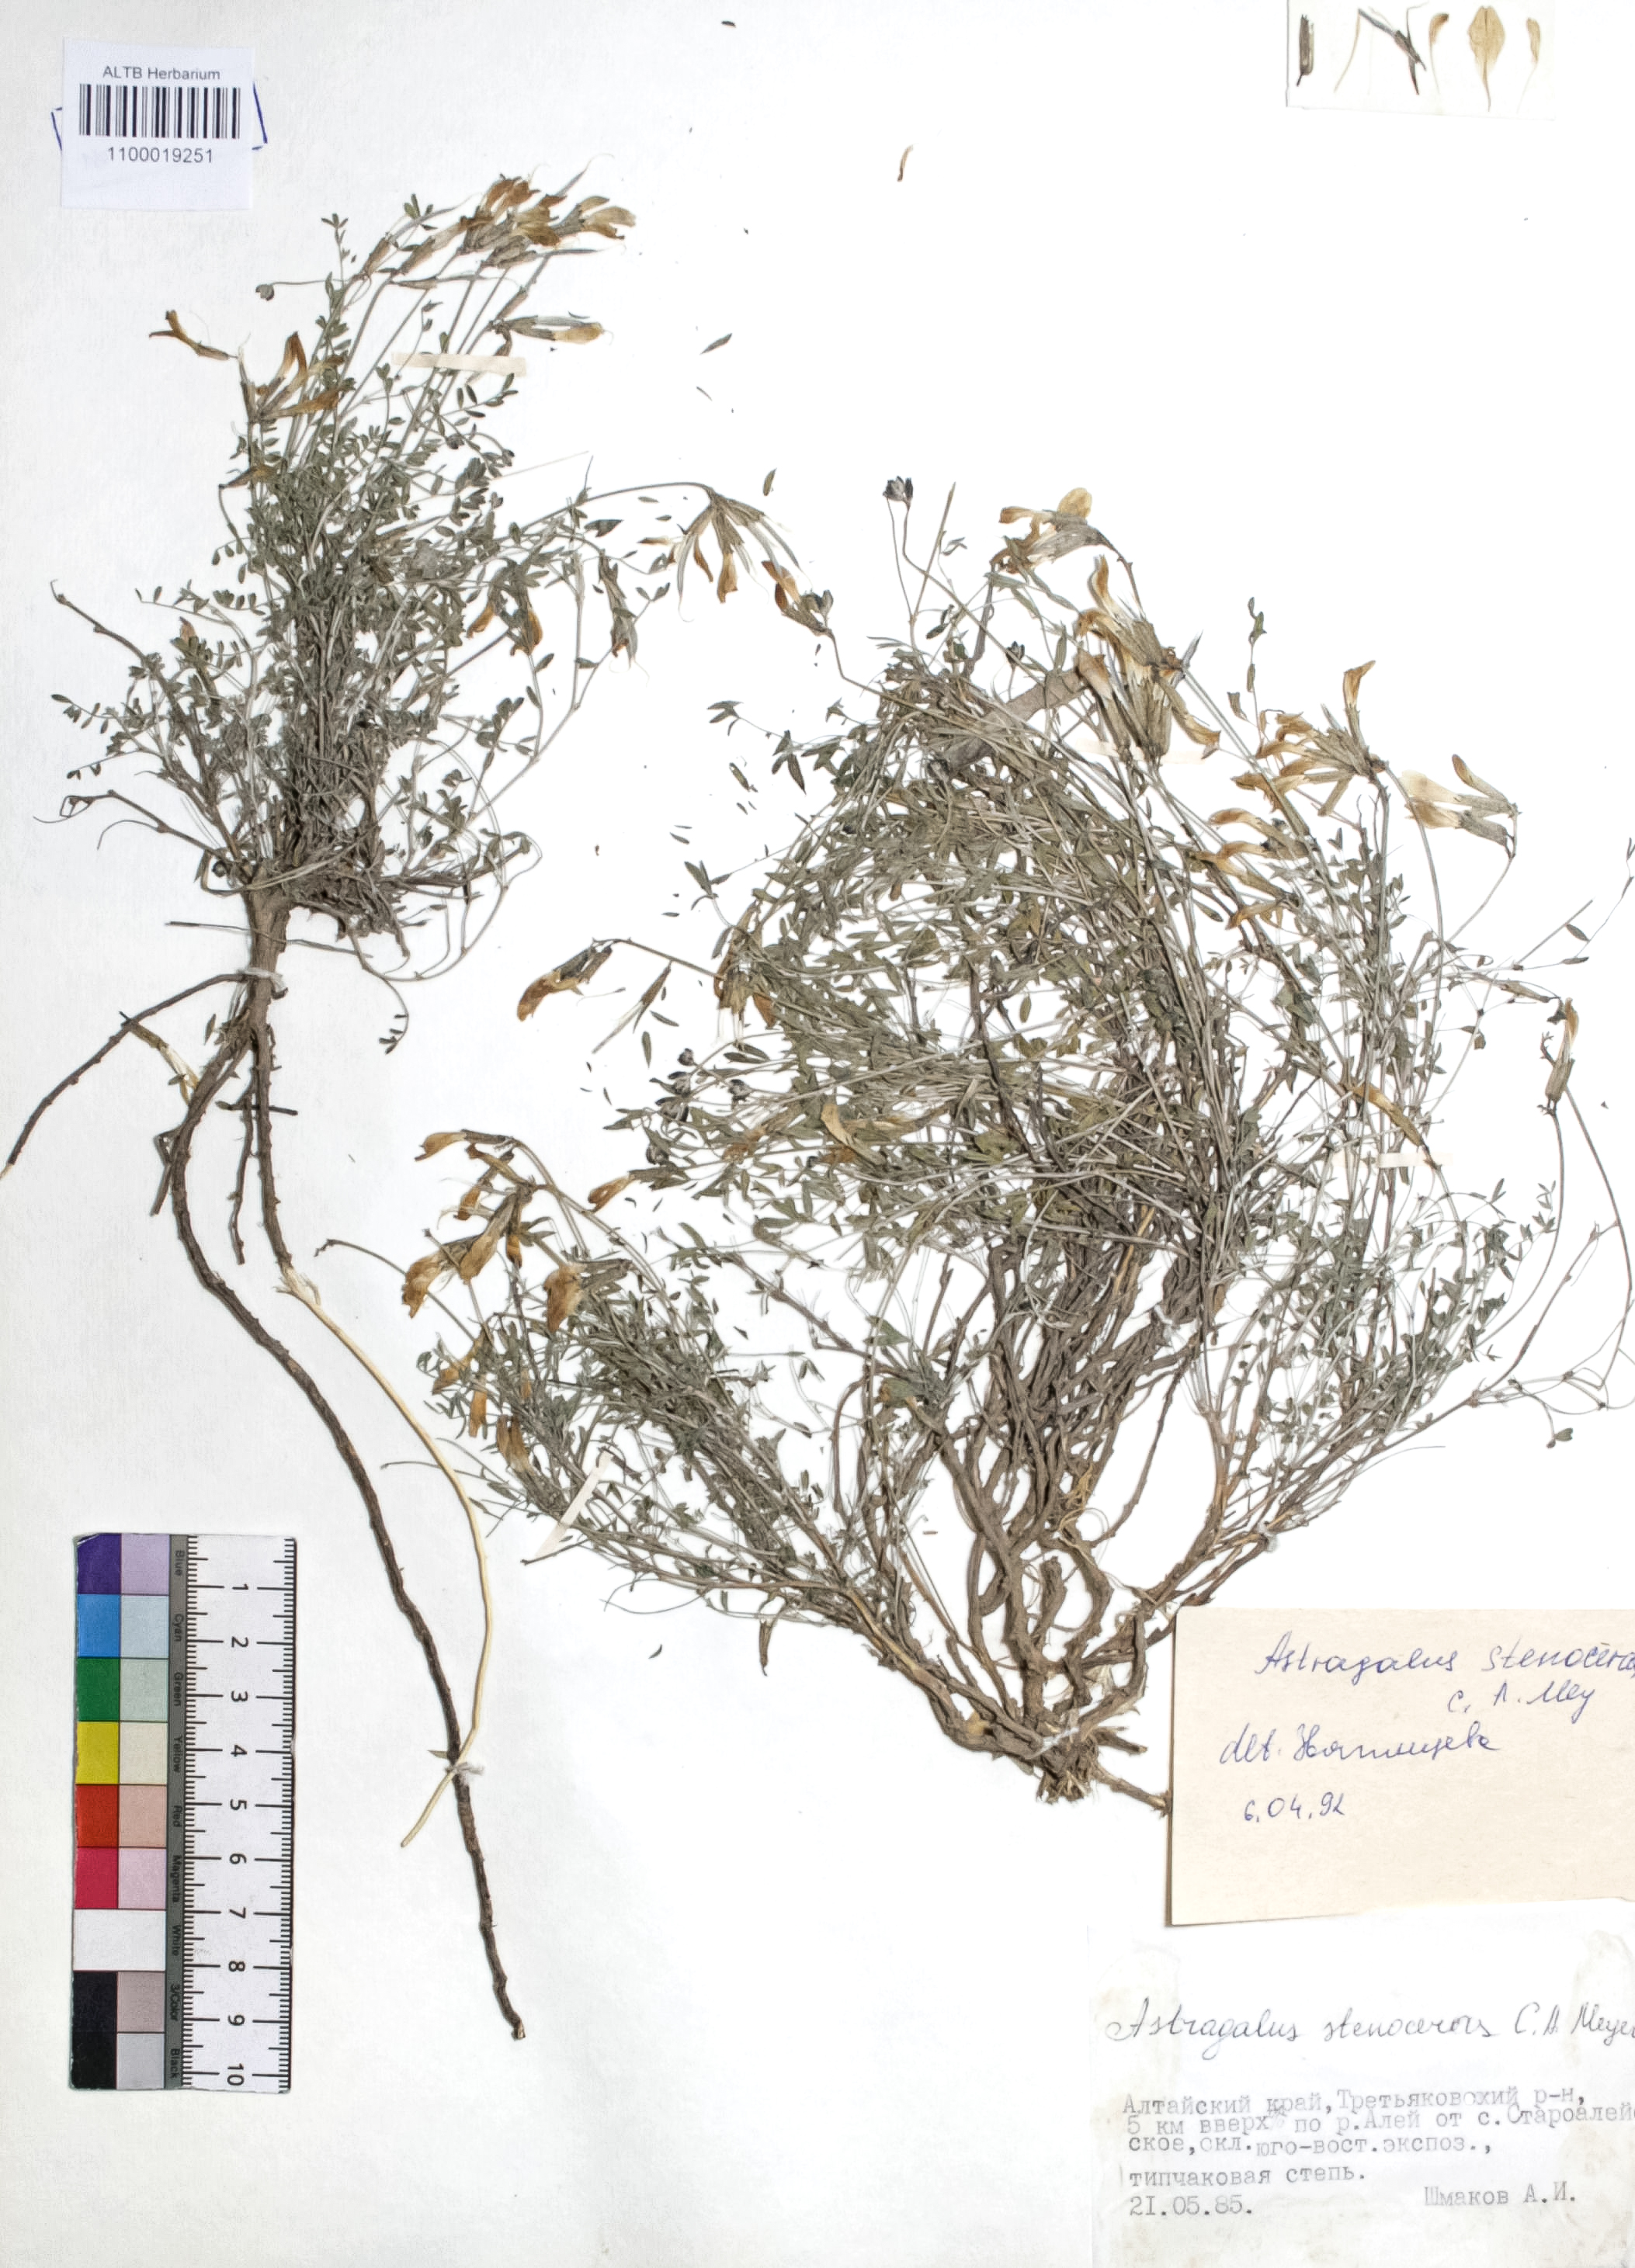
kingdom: Plantae
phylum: Tracheophyta
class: Magnoliopsida
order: Fabales
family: Fabaceae
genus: Astragalus
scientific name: Astragalus stenoceras
